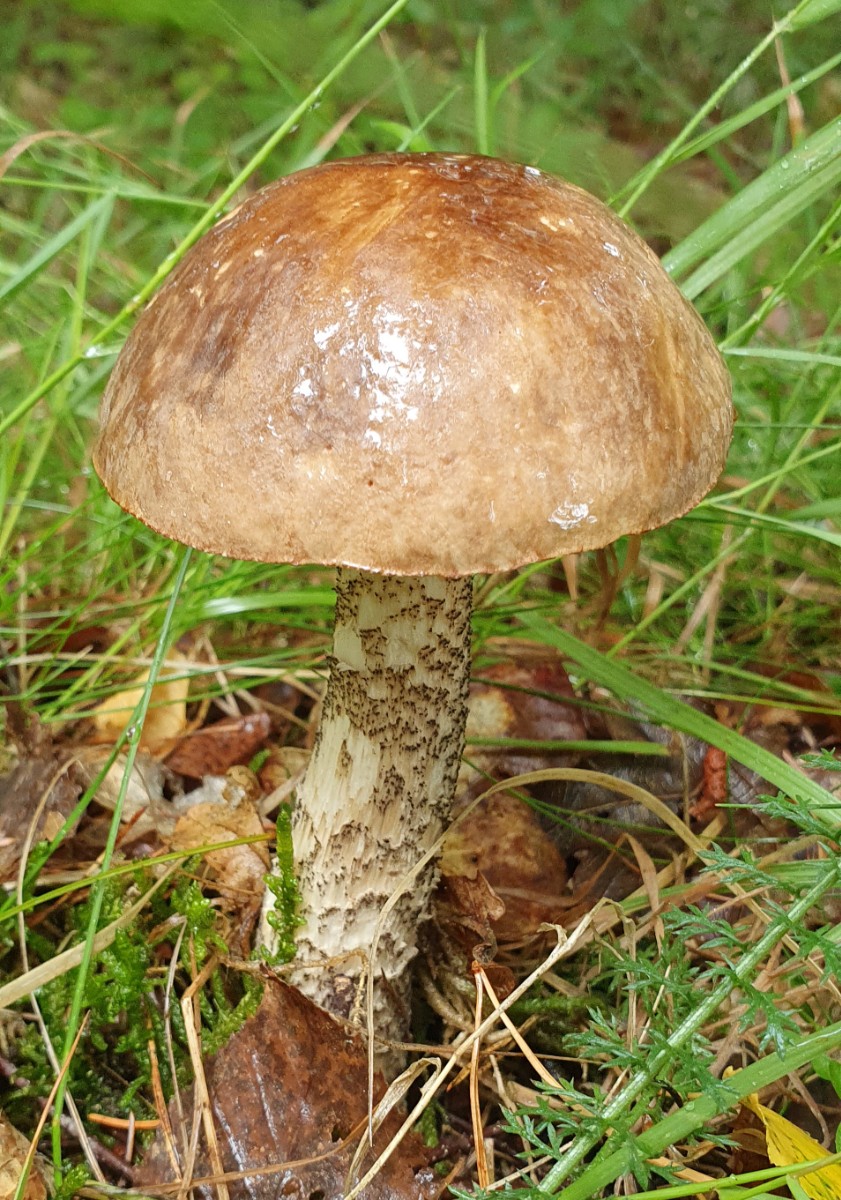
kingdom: Fungi
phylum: Basidiomycota
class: Agaricomycetes
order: Boletales
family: Boletaceae
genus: Leccinum
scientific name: Leccinum scabrum
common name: brun skælrørhat
